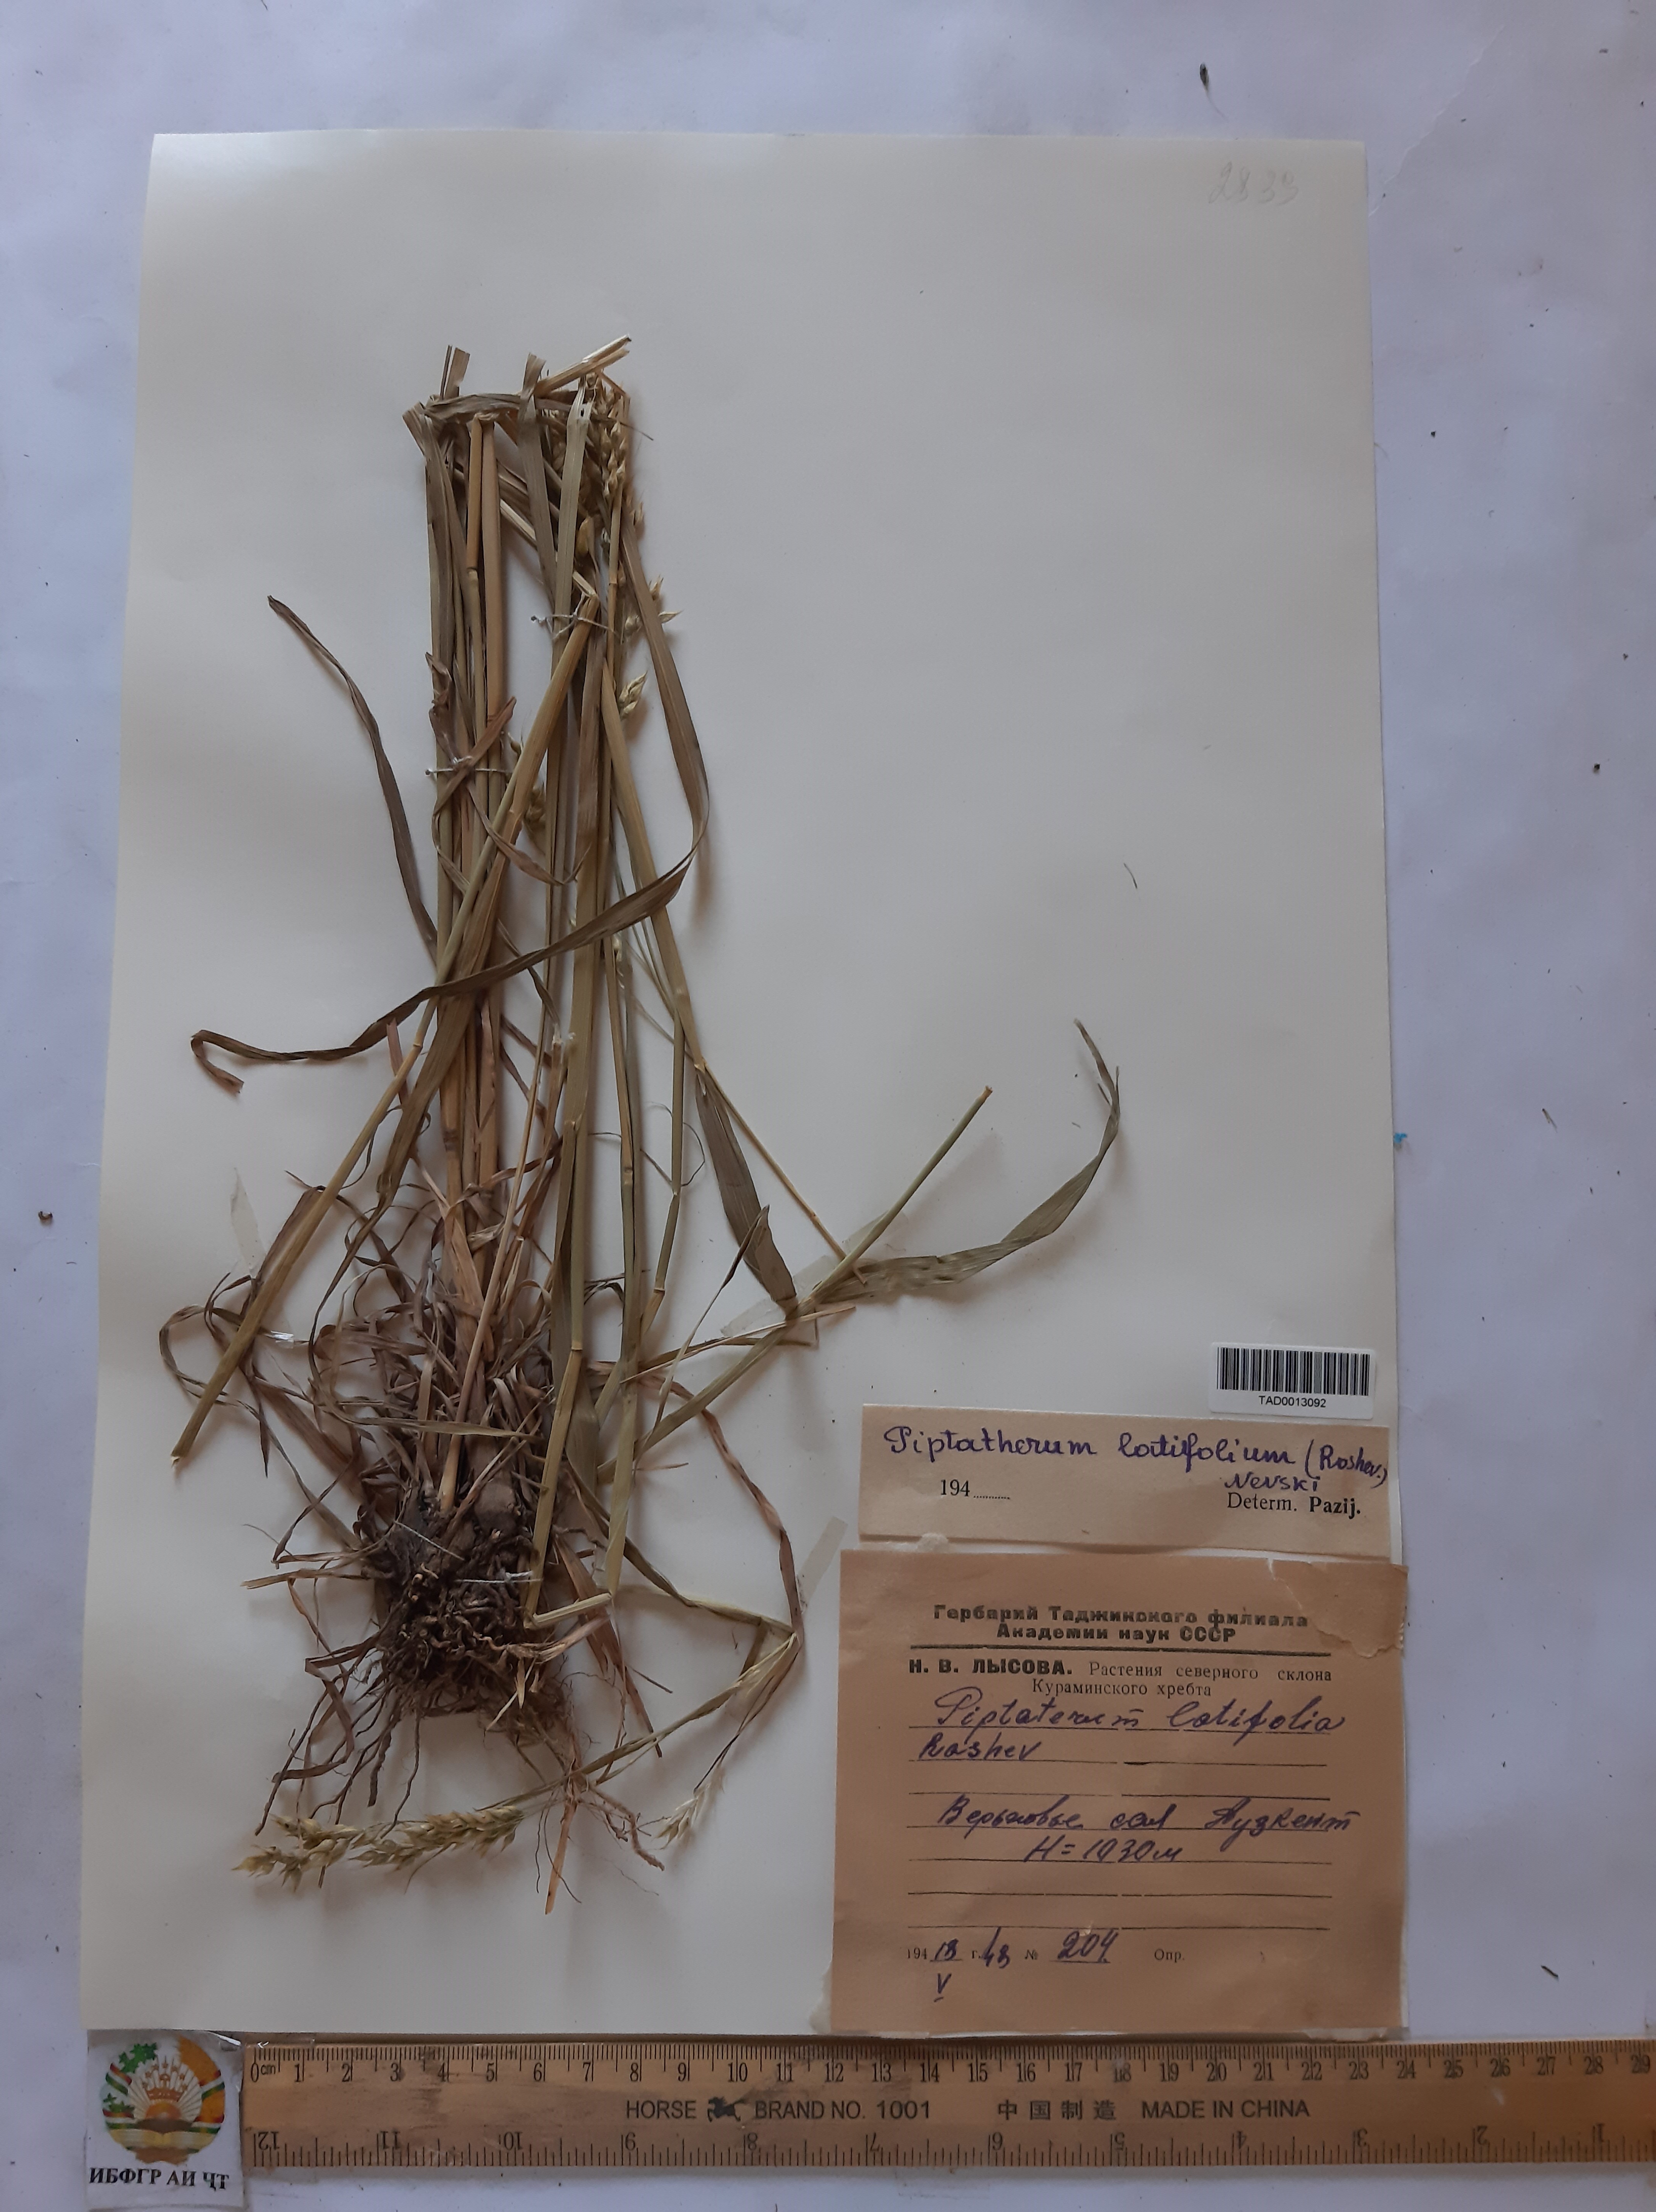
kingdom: Plantae
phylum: Tracheophyta
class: Liliopsida
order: Poales
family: Poaceae
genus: Piptatherum
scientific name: Piptatherum latifolium
